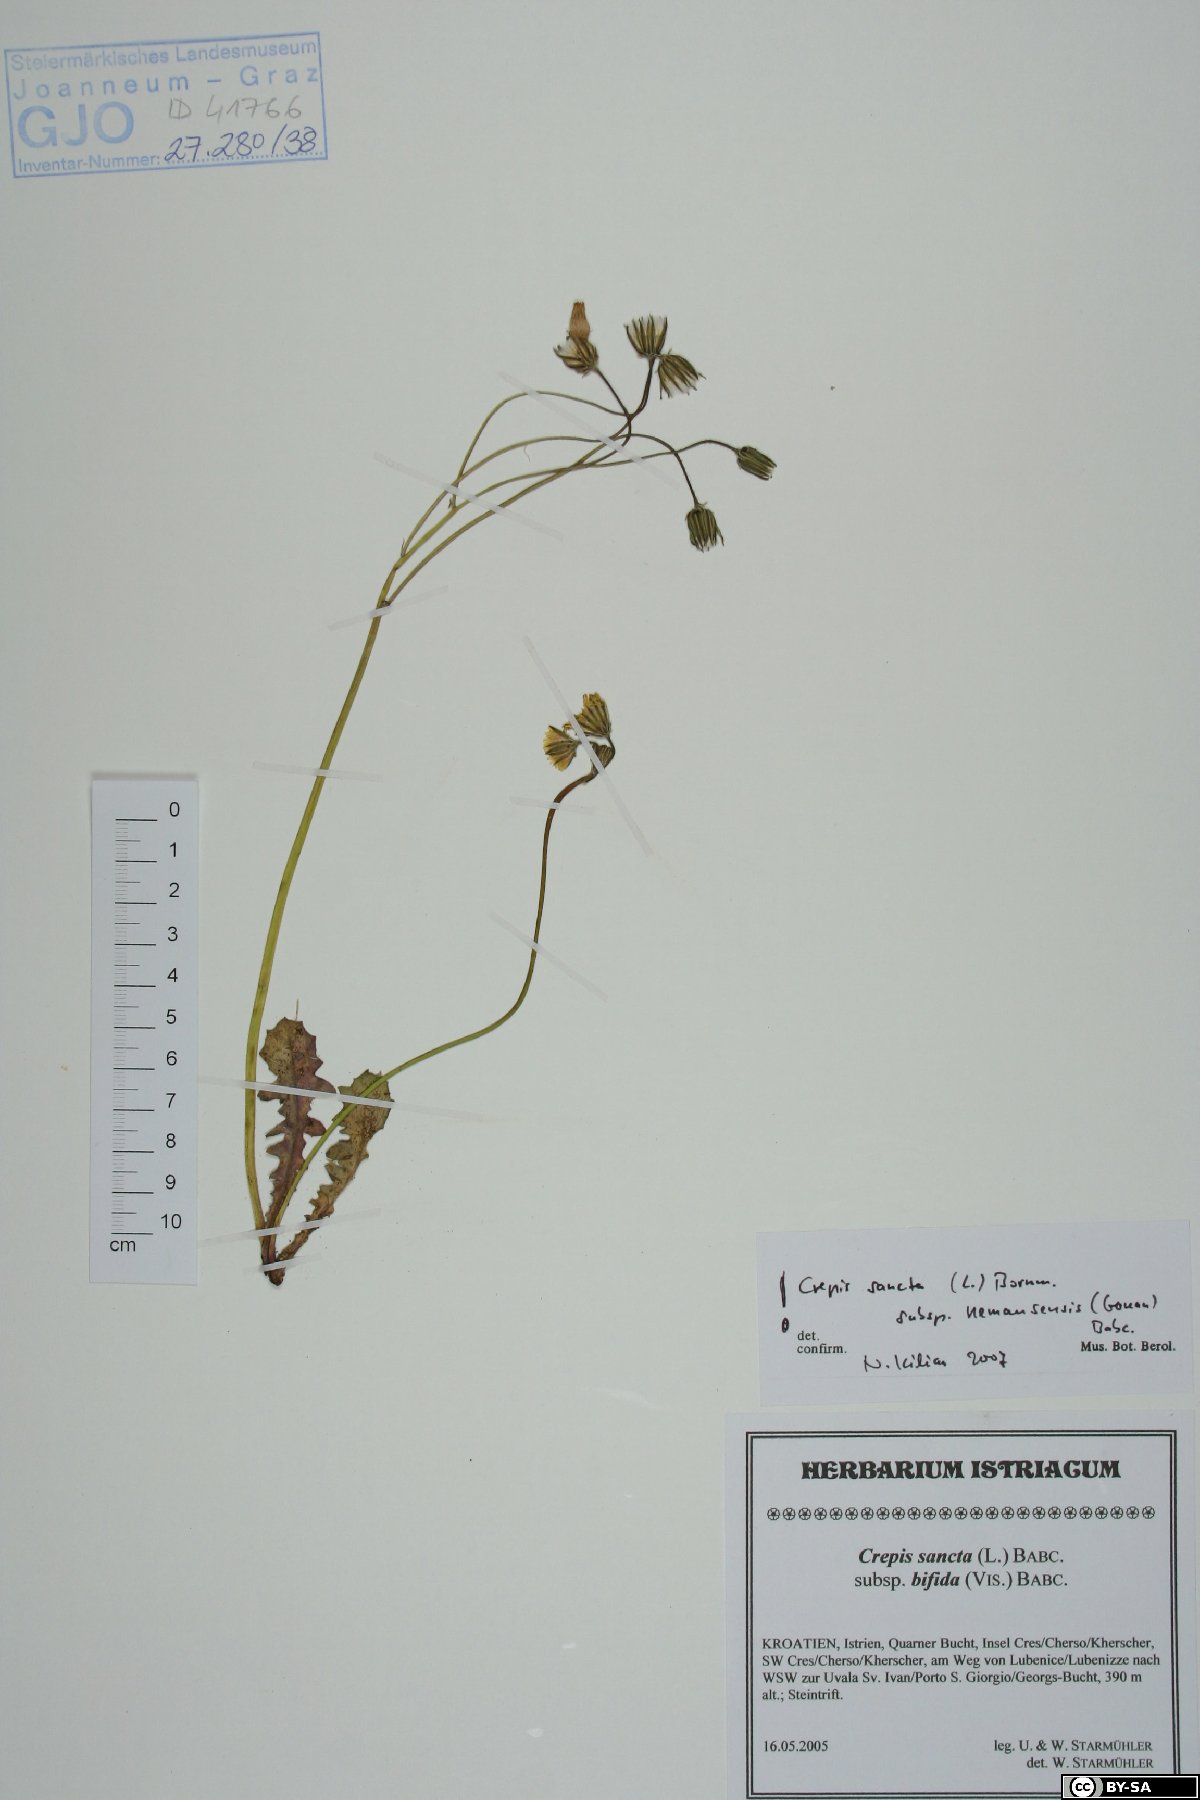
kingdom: Plantae
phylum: Tracheophyta
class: Magnoliopsida
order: Asterales
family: Asteraceae
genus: Crepis
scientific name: Crepis sancta
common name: Hawk's-beard
